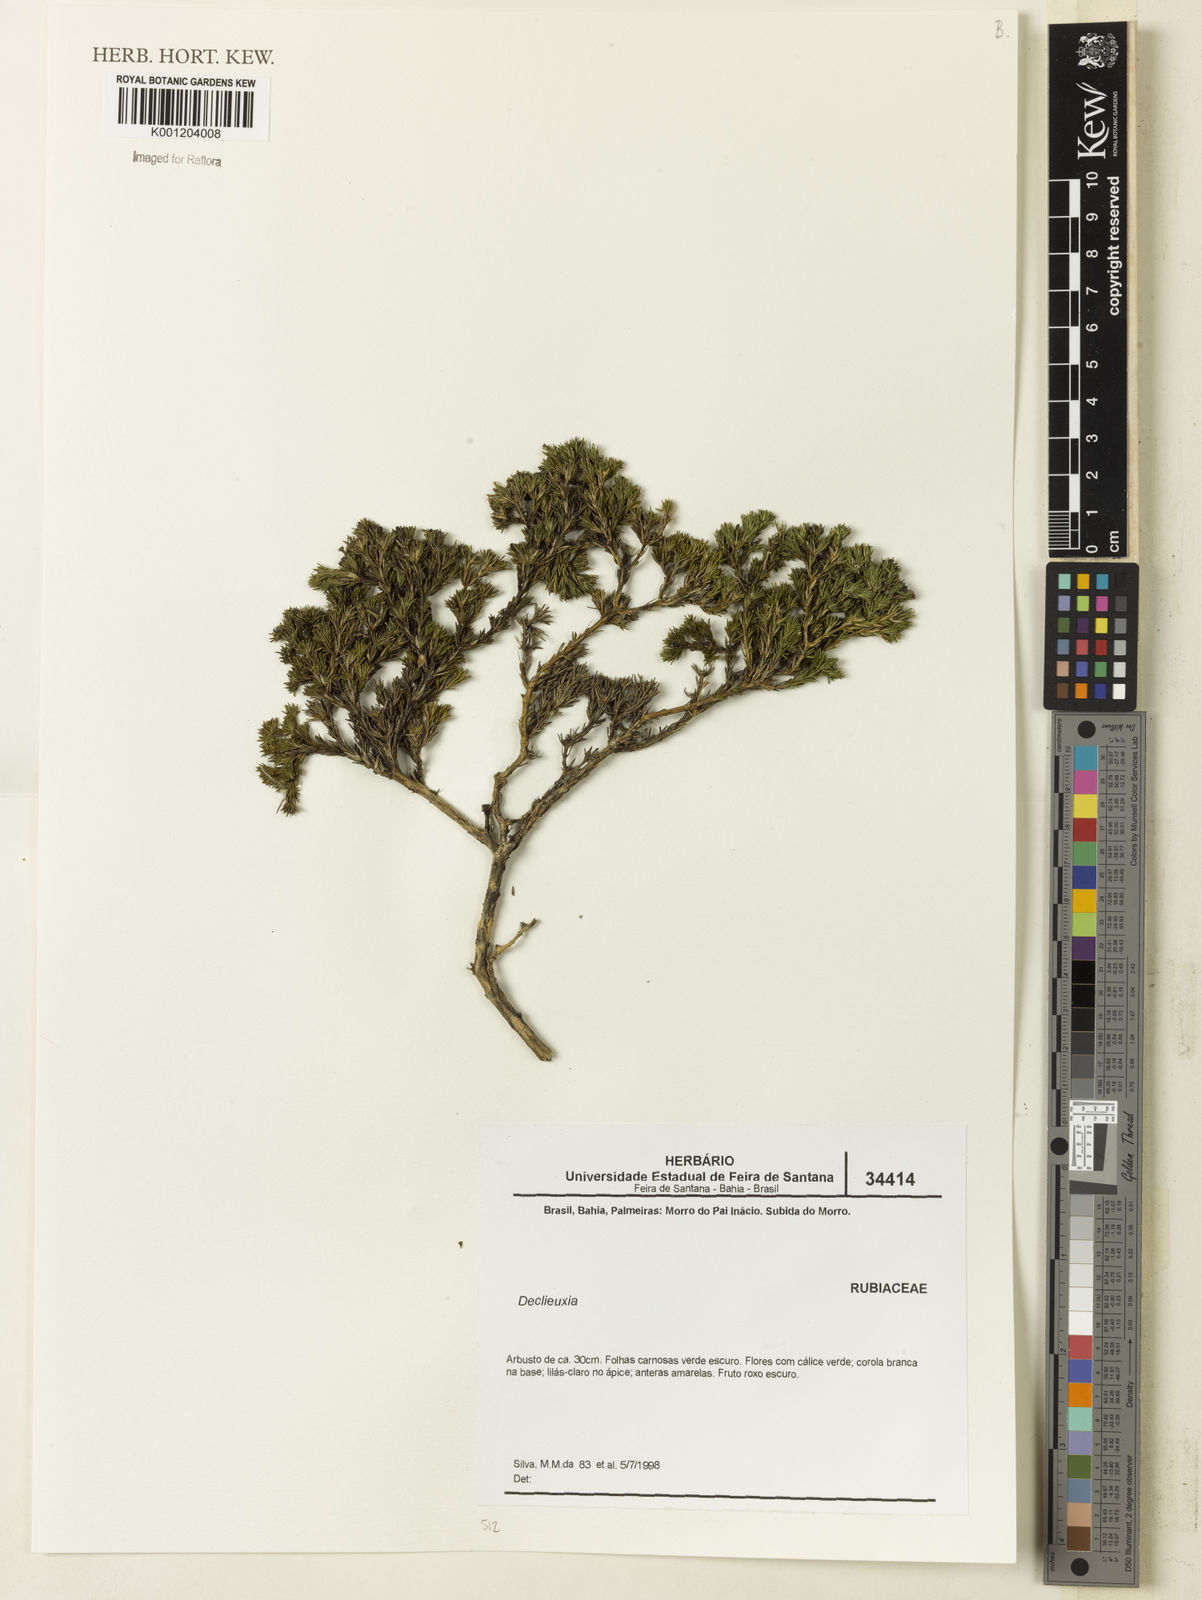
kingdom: Plantae
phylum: Tracheophyta
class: Magnoliopsida
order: Gentianales
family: Rubiaceae
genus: Declieuxia
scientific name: Declieuxia
